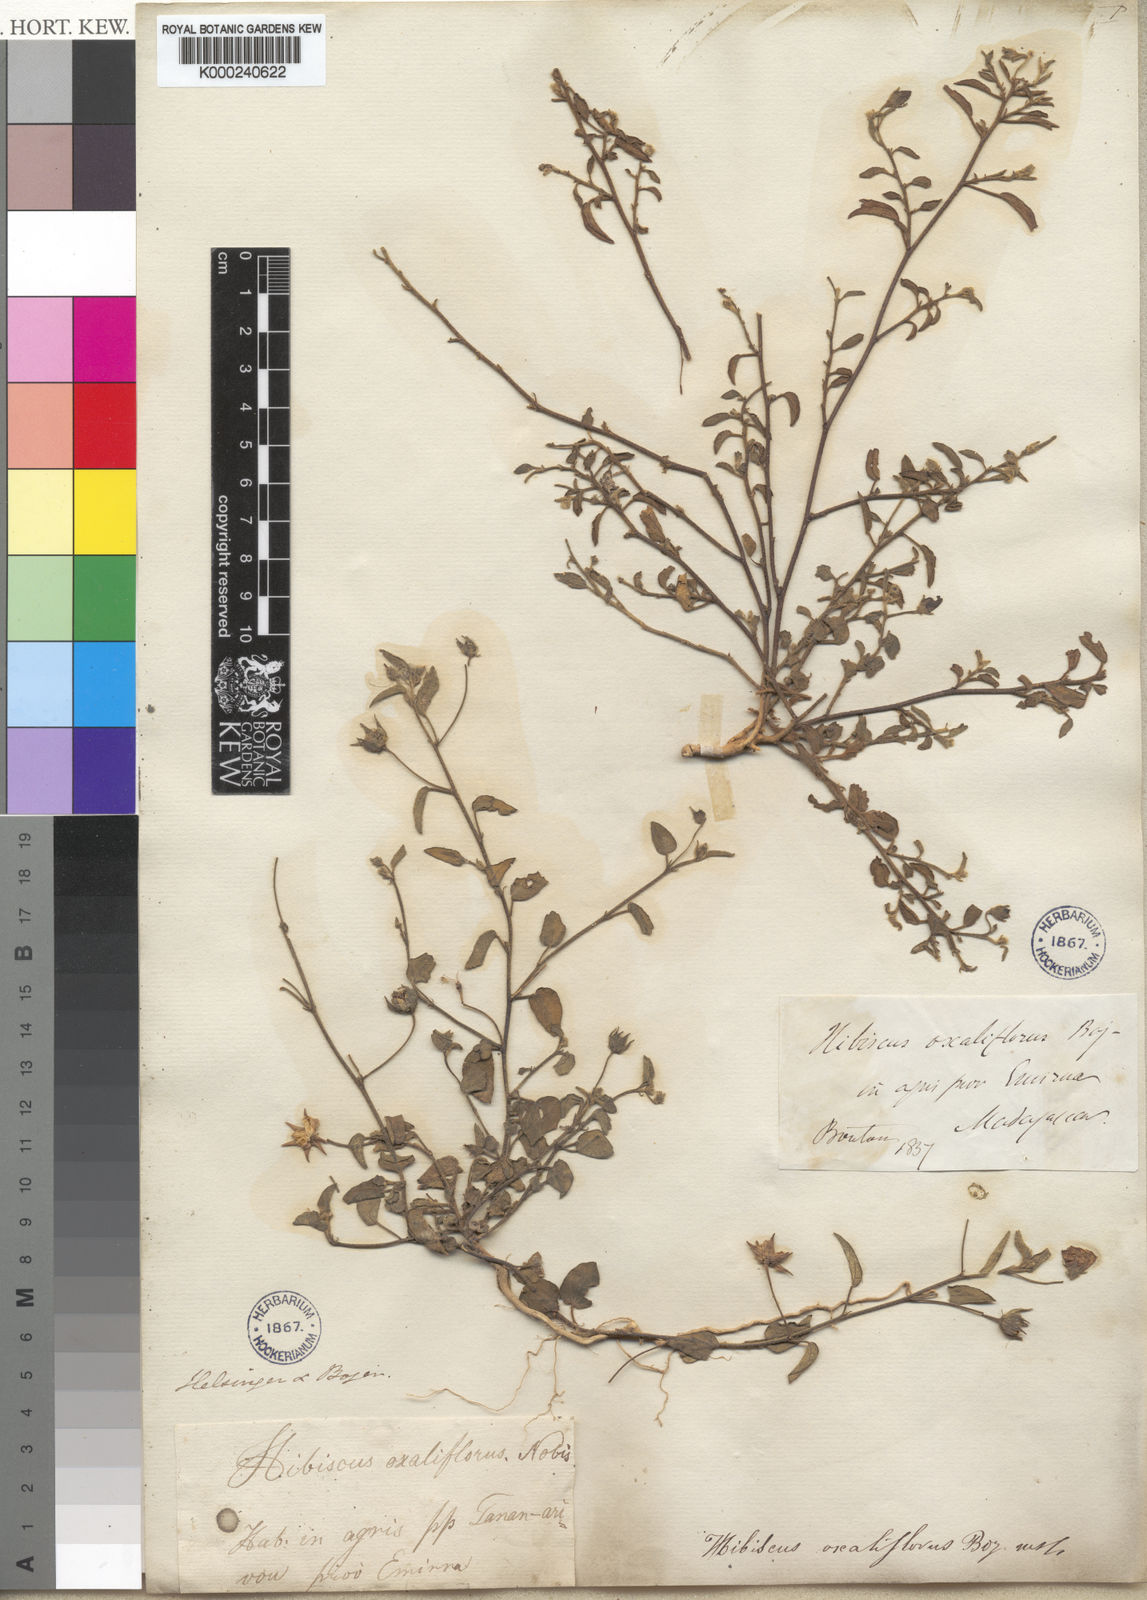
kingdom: Plantae
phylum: Tracheophyta
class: Magnoliopsida
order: Malvales
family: Malvaceae
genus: Hibiscus
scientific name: Hibiscus
